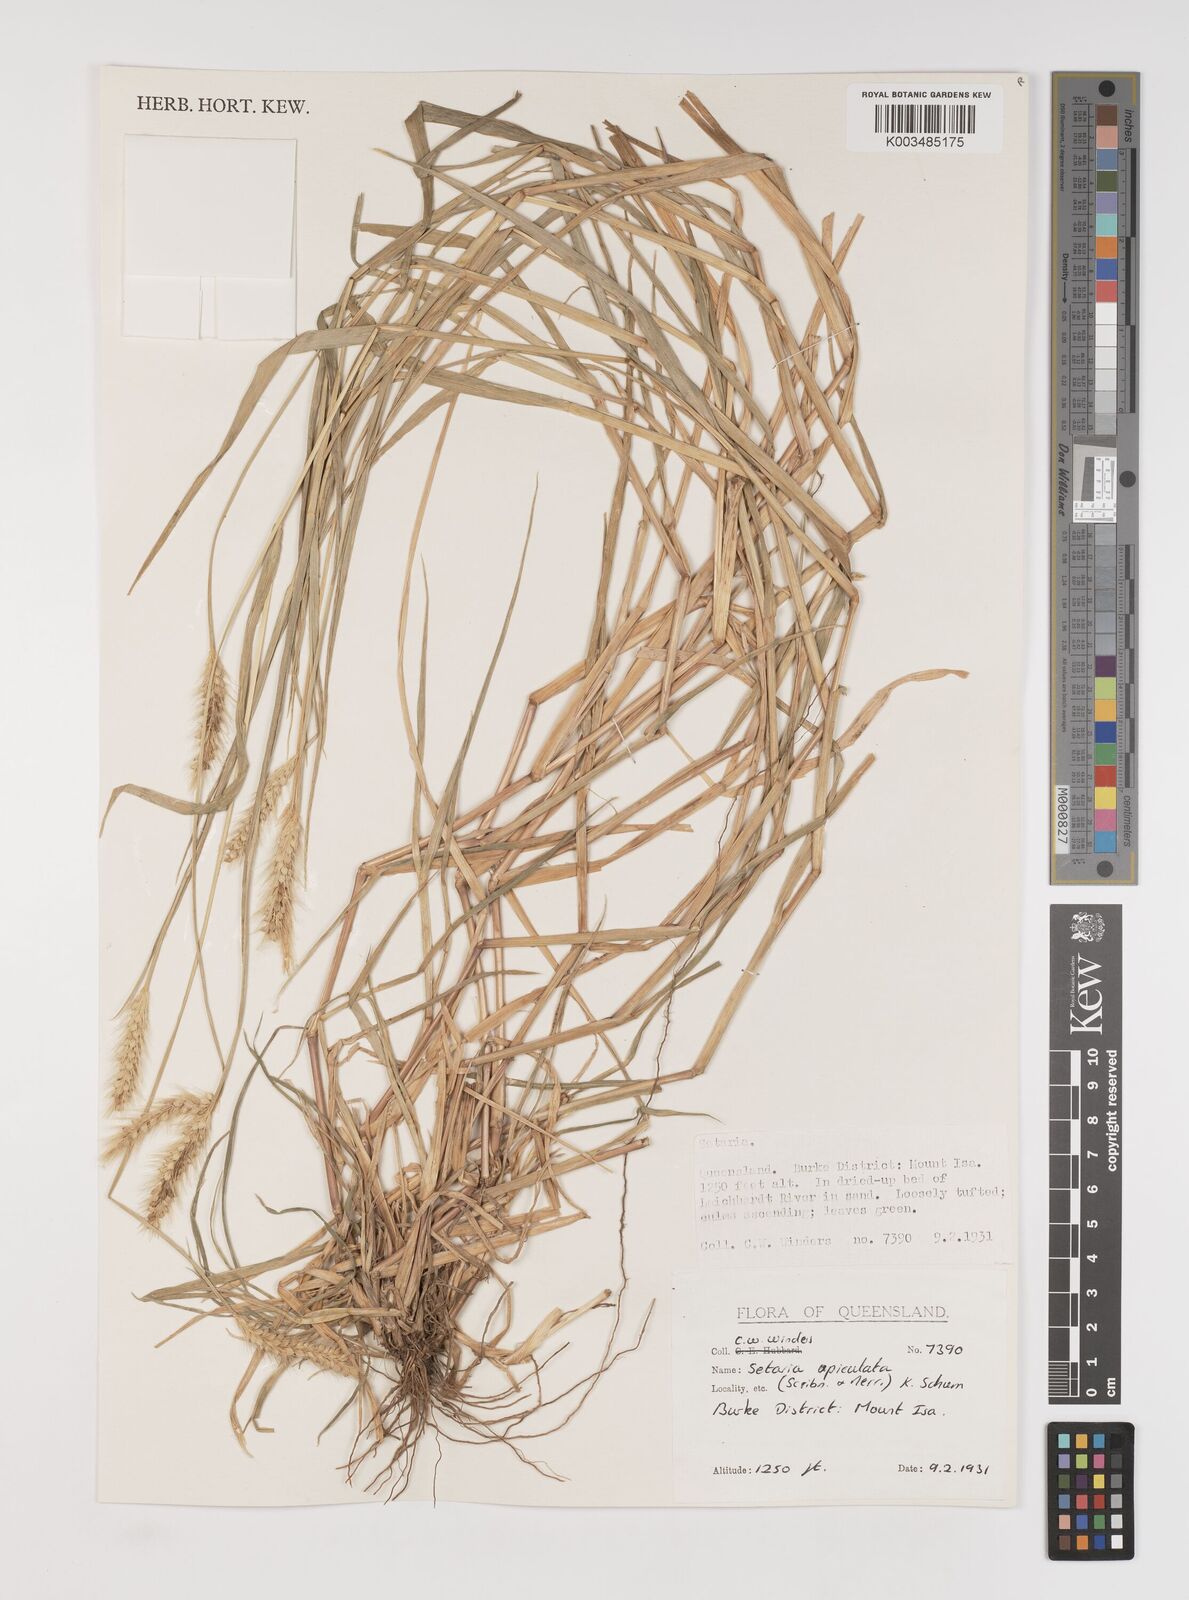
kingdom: Plantae
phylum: Tracheophyta
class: Liliopsida
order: Poales
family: Poaceae
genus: Setaria
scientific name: Setaria apiculata
